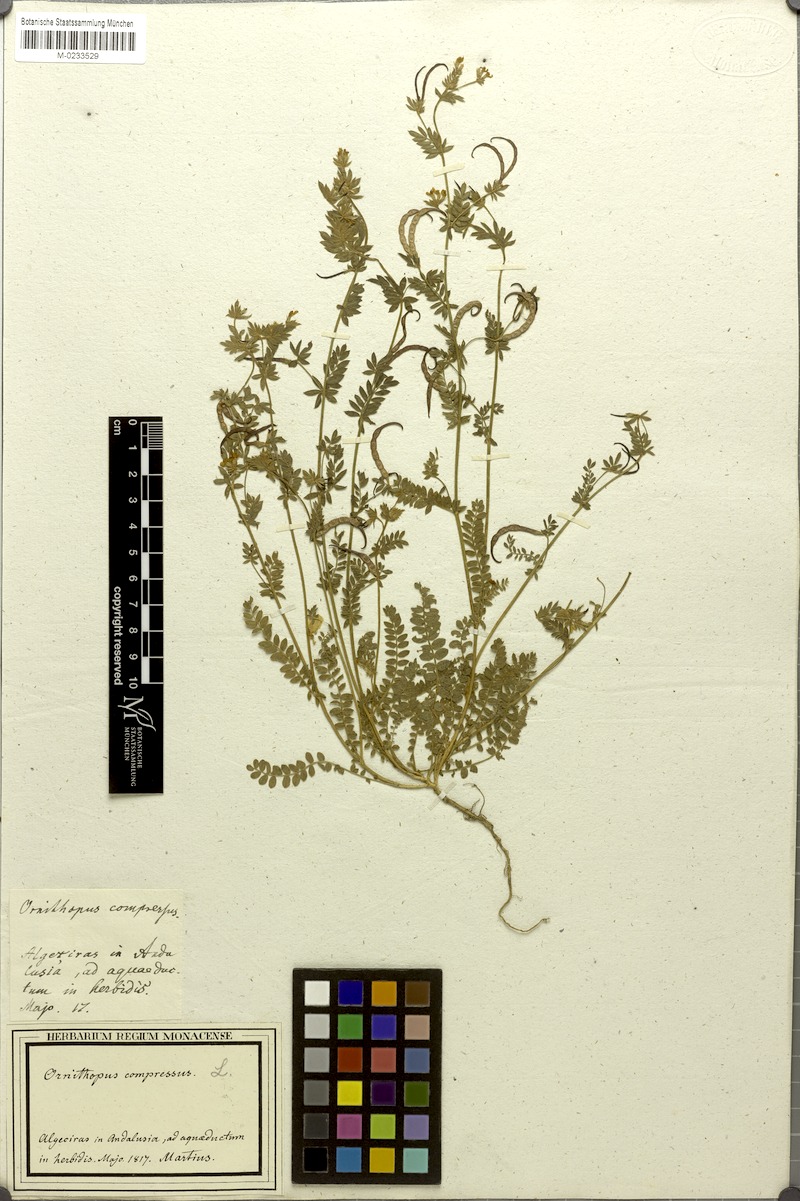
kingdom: Plantae
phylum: Tracheophyta
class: Magnoliopsida
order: Fabales
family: Fabaceae
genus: Ornithopus
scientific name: Ornithopus compressus
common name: Yellow serradella
